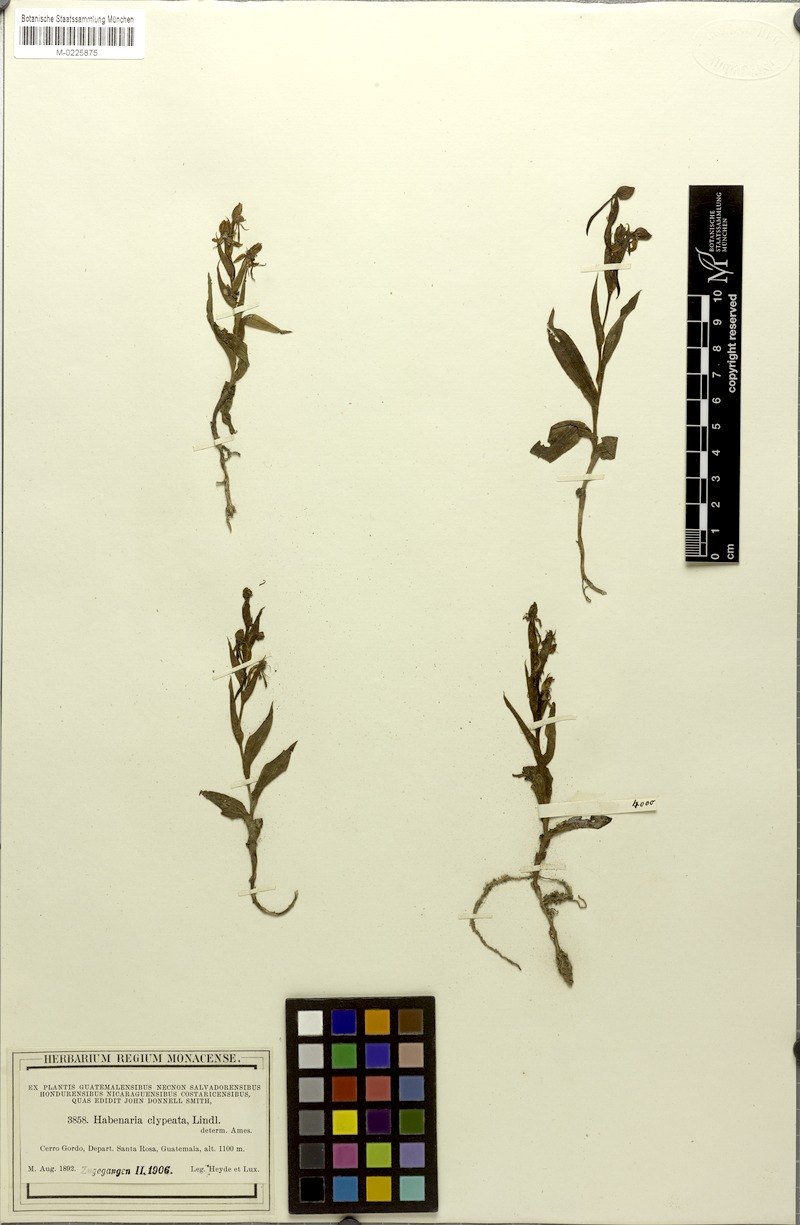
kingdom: Plantae
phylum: Tracheophyta
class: Liliopsida
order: Asparagales
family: Orchidaceae
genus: Habenaria
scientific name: Habenaria clypeata
